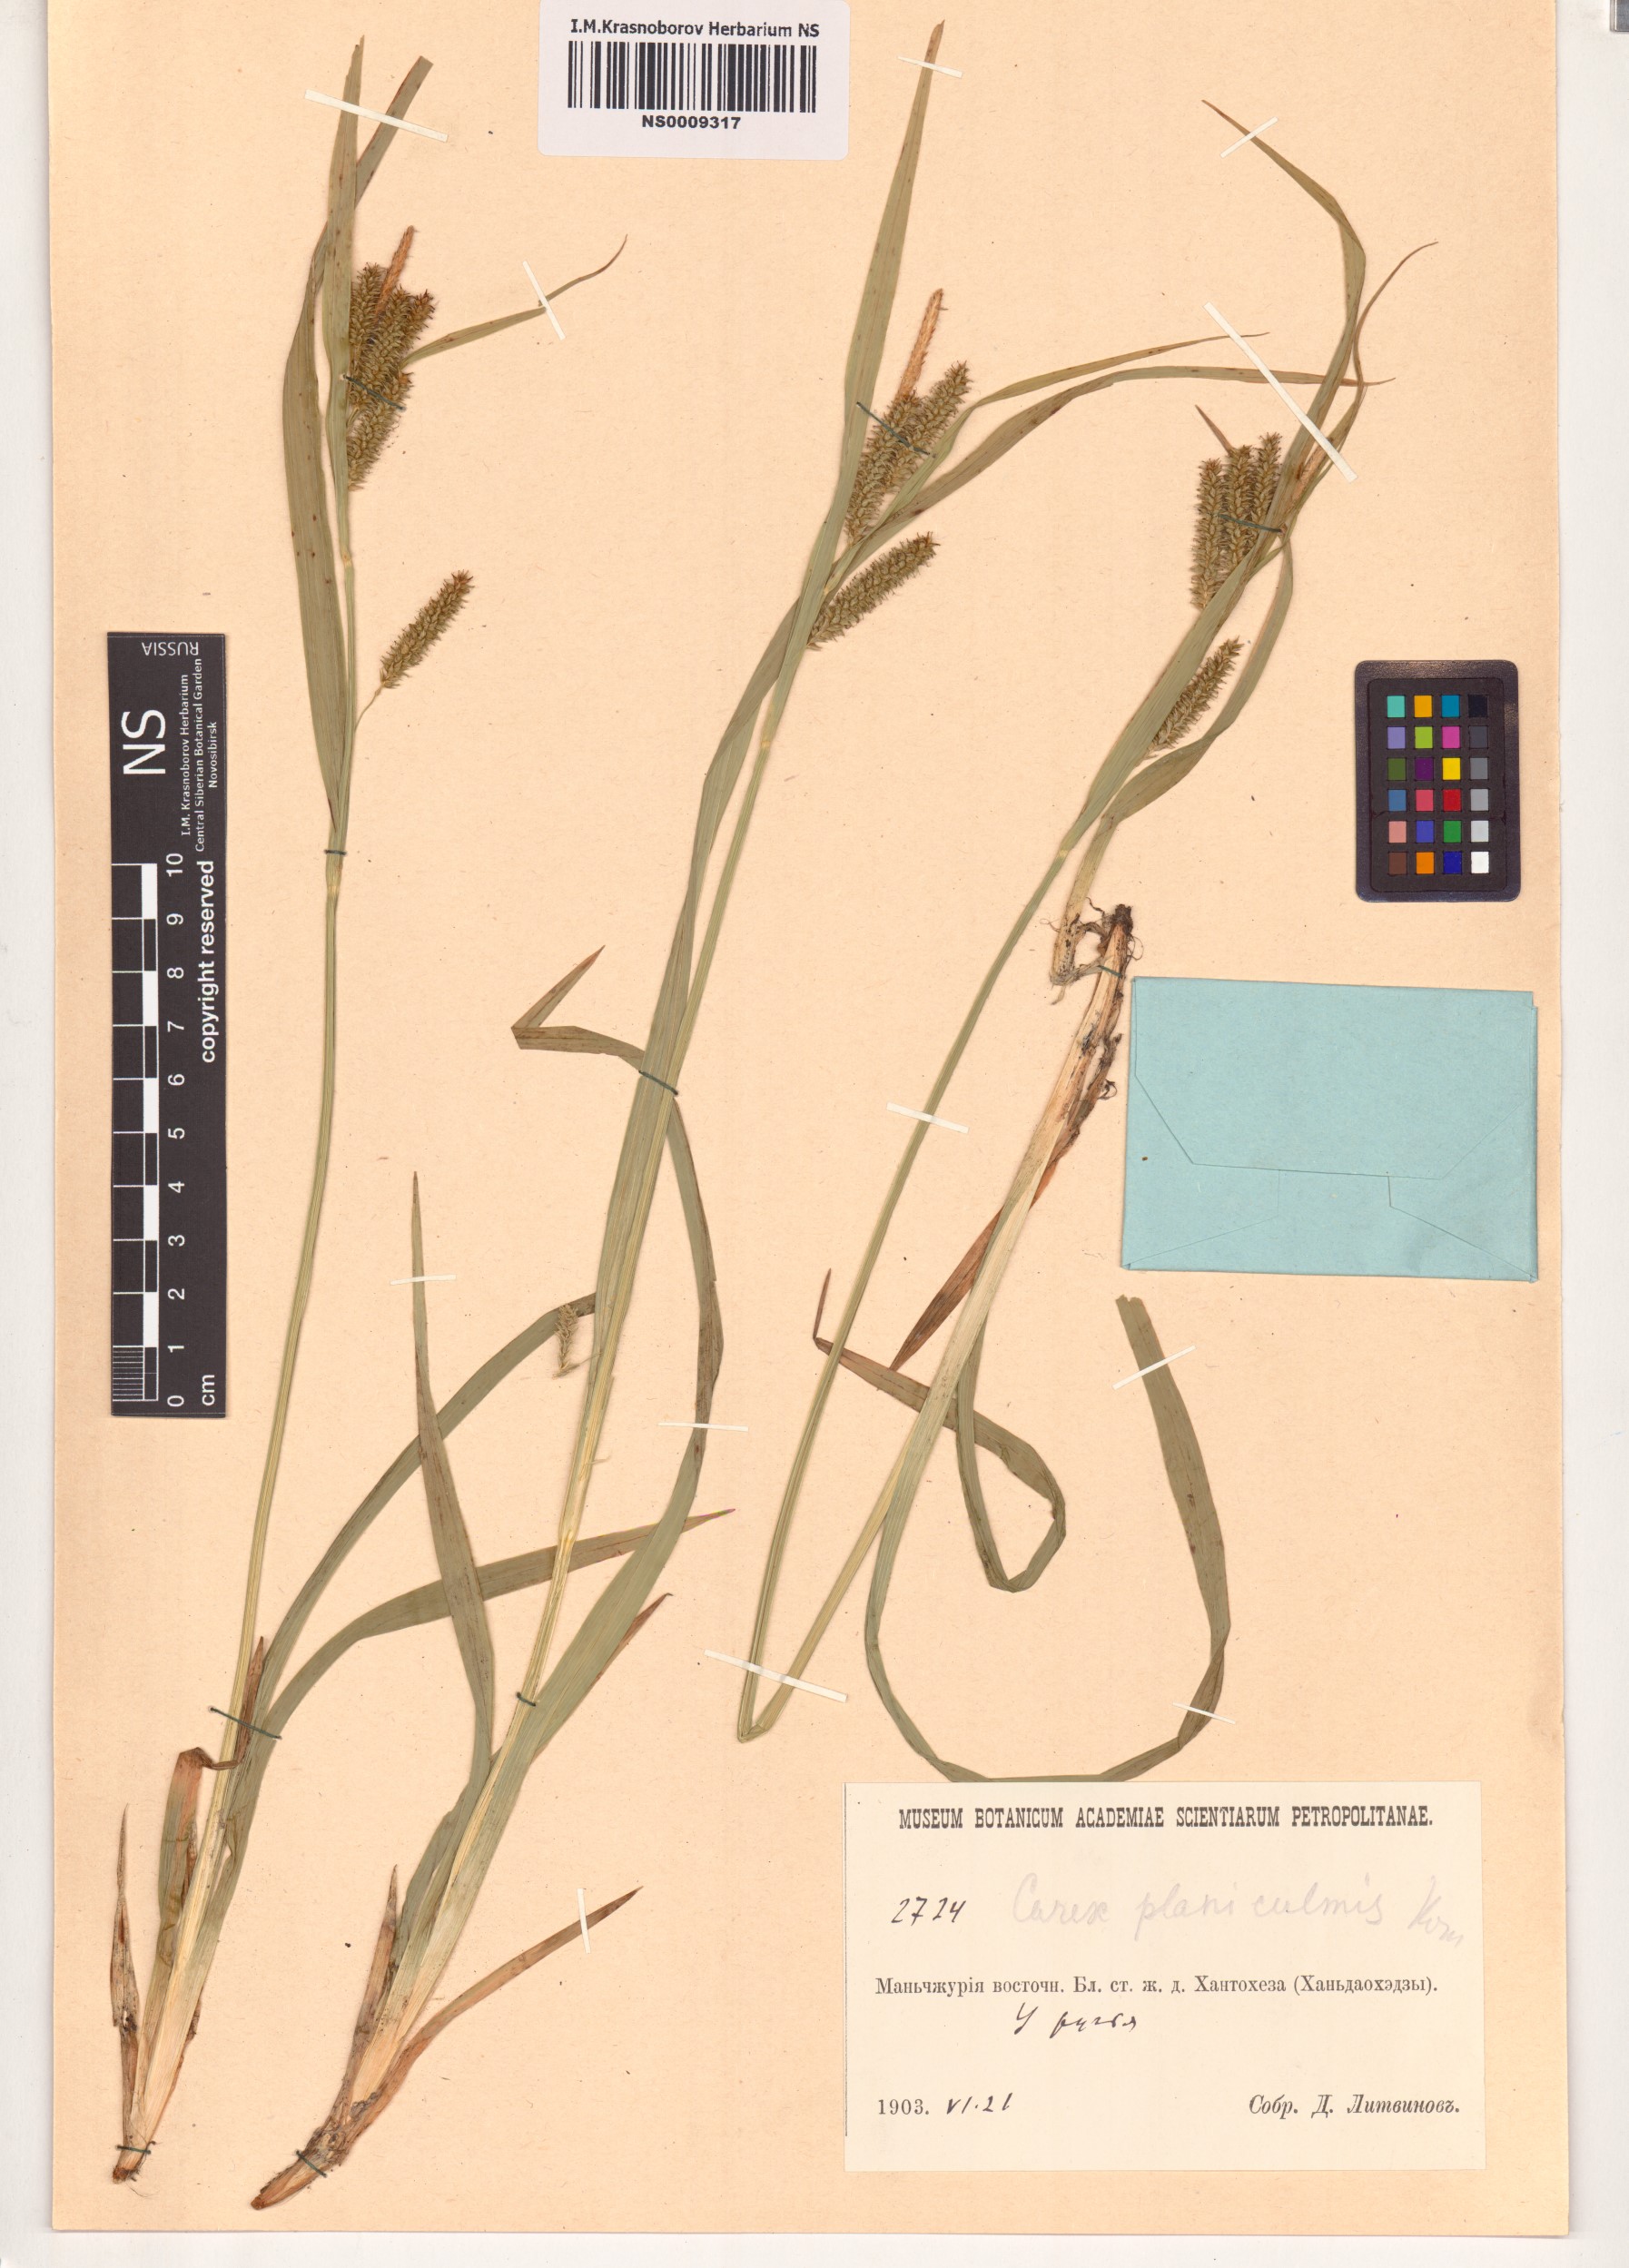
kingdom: Plantae
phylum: Tracheophyta
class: Liliopsida
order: Poales
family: Cyperaceae
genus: Carex
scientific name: Carex planiculmis
